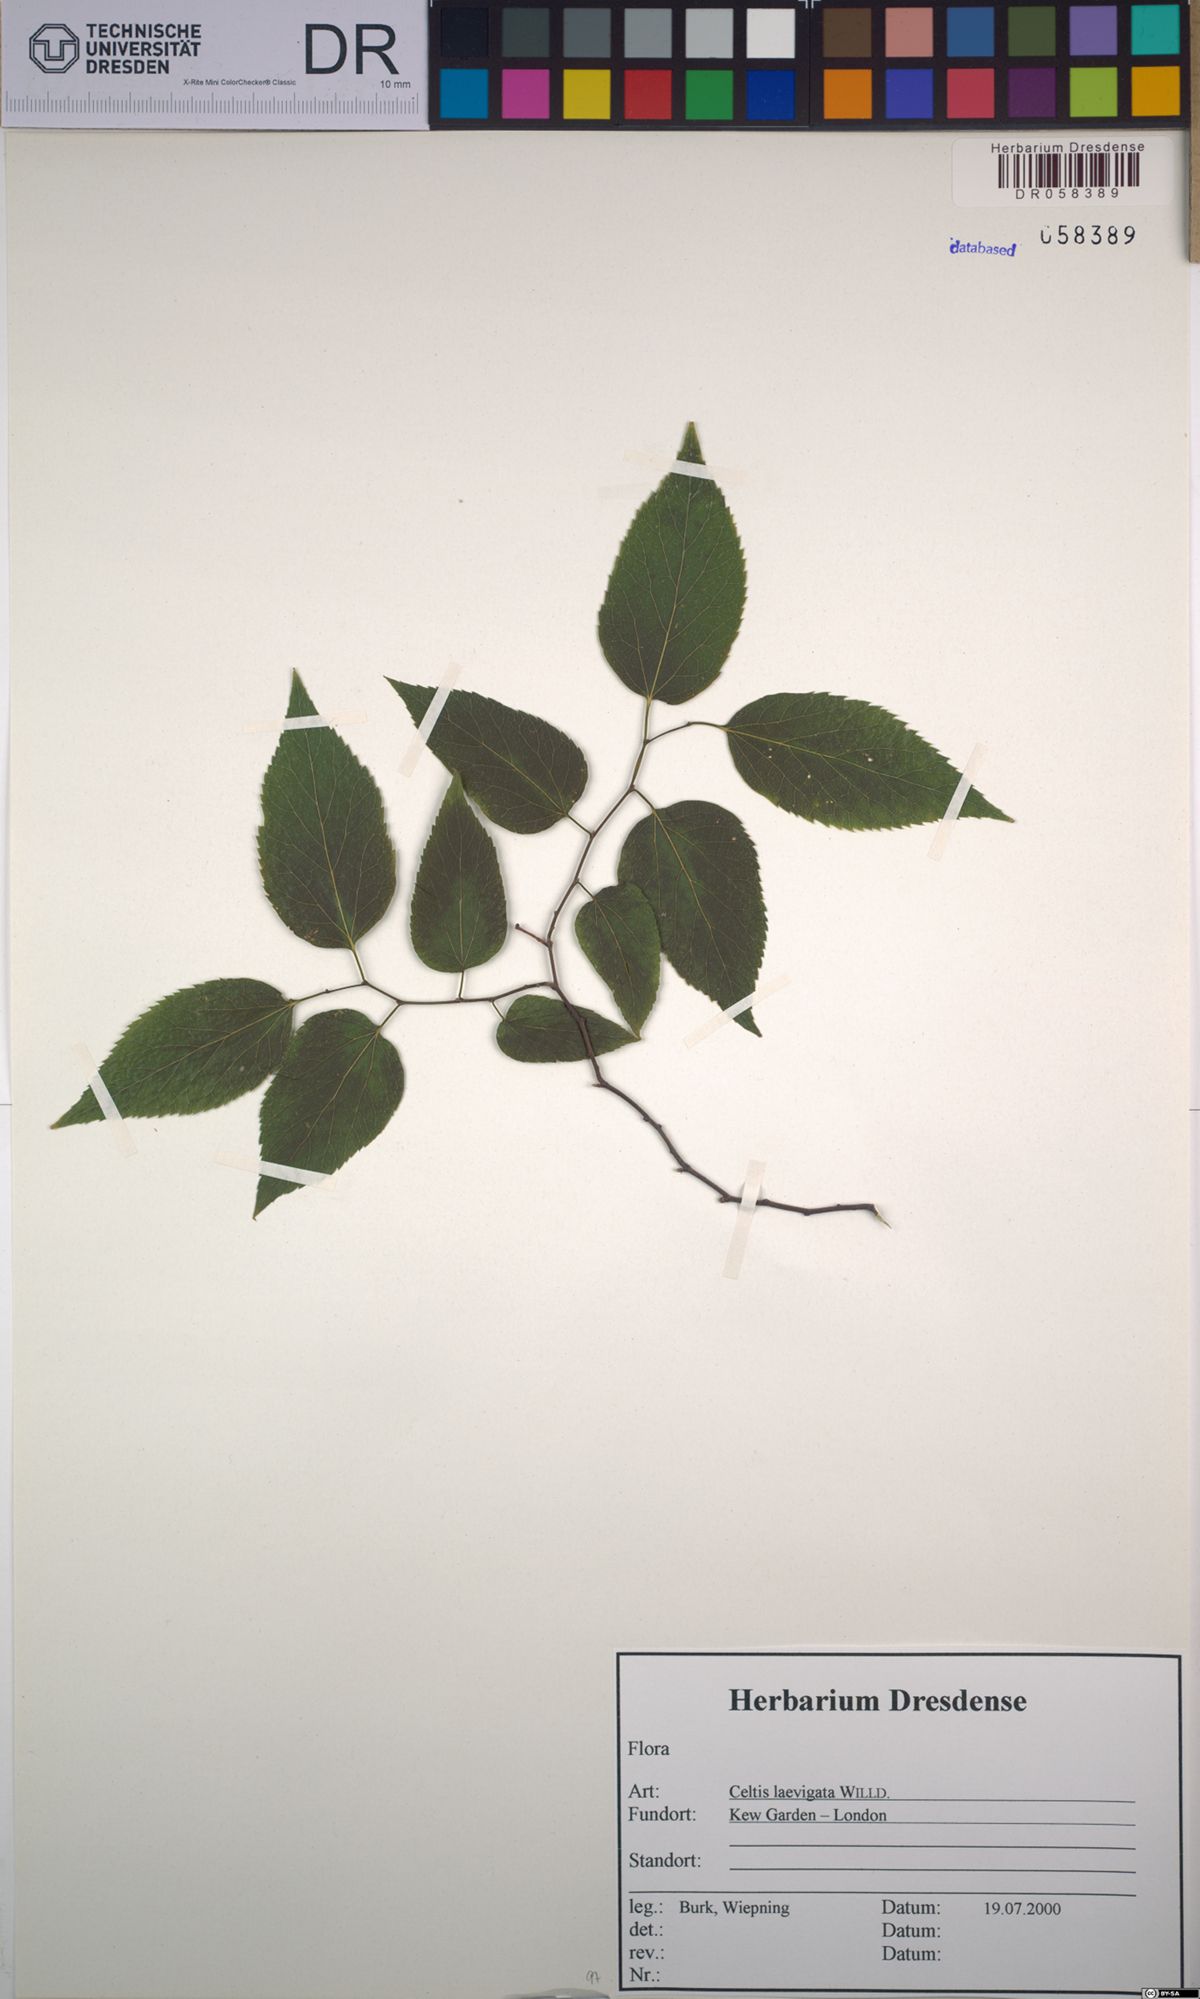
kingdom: Plantae
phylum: Tracheophyta
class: Magnoliopsida
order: Rosales
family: Cannabaceae
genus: Celtis
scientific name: Celtis laevigata
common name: Sugarberry
